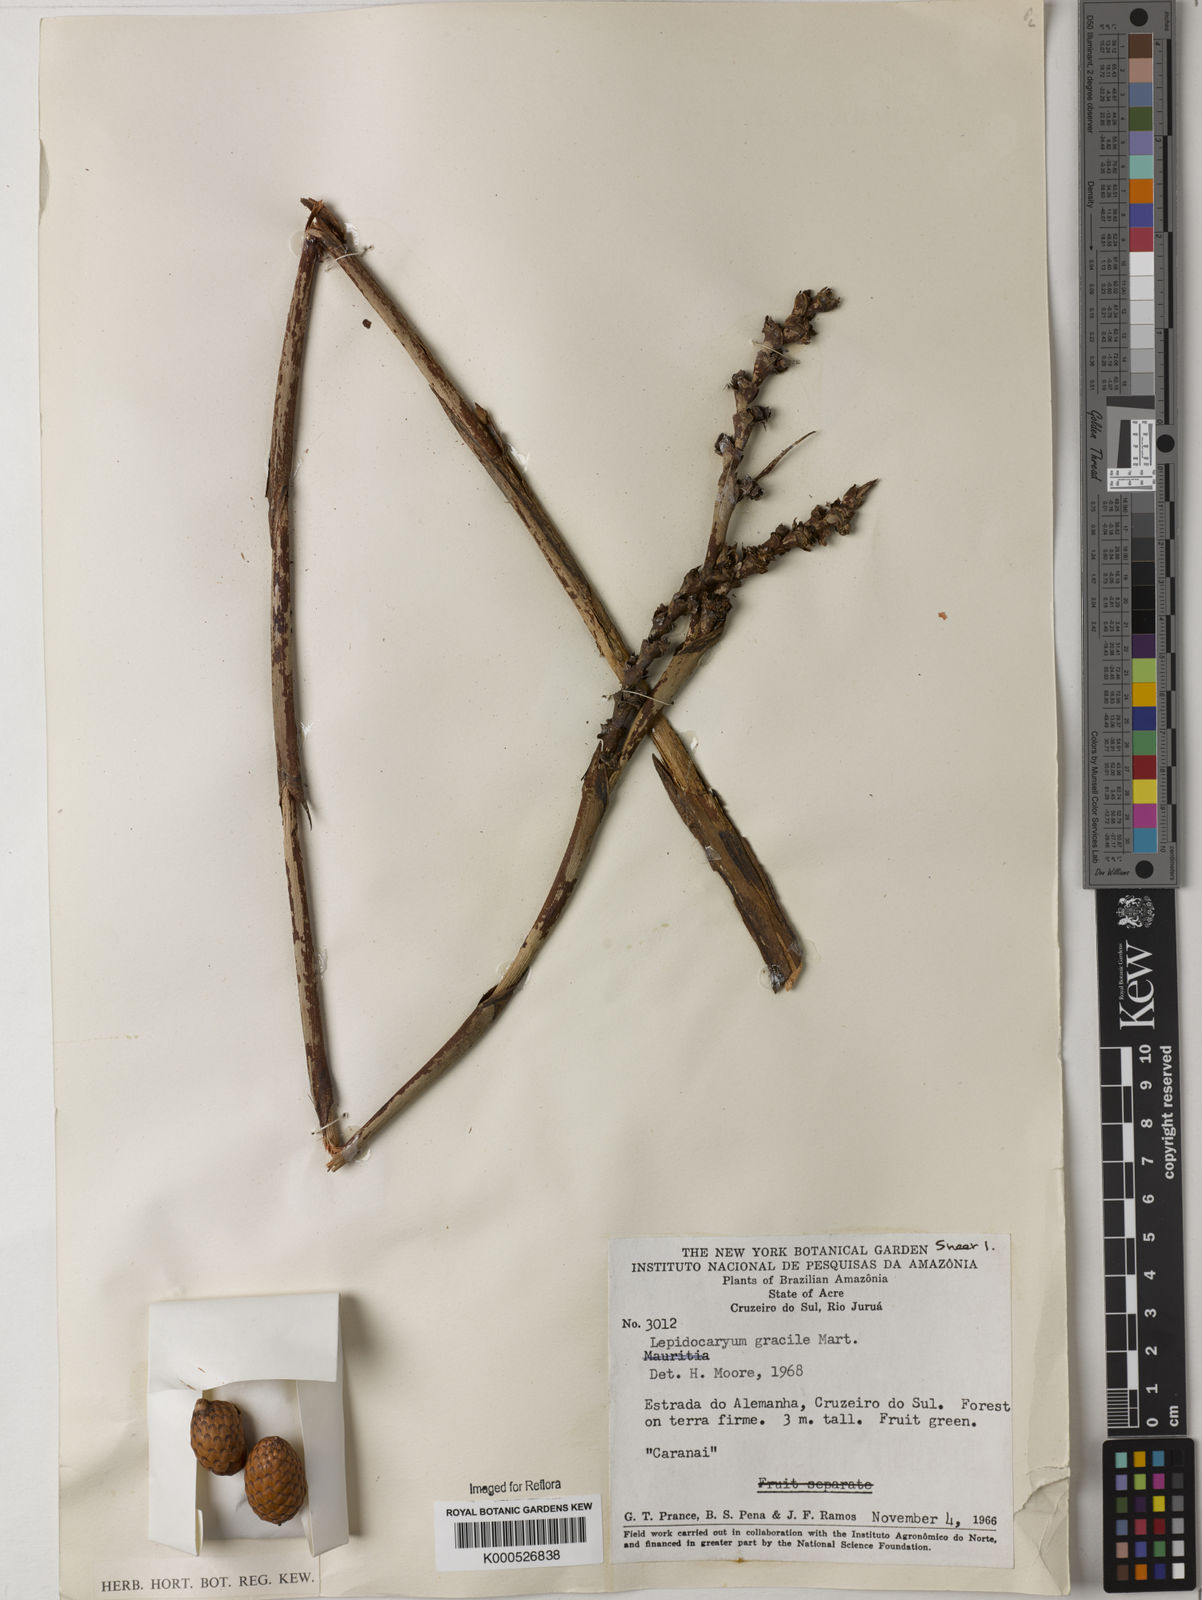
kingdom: Plantae
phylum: Tracheophyta
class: Liliopsida
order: Arecales
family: Arecaceae
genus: Lepidocaryum
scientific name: Lepidocaryum tenue
